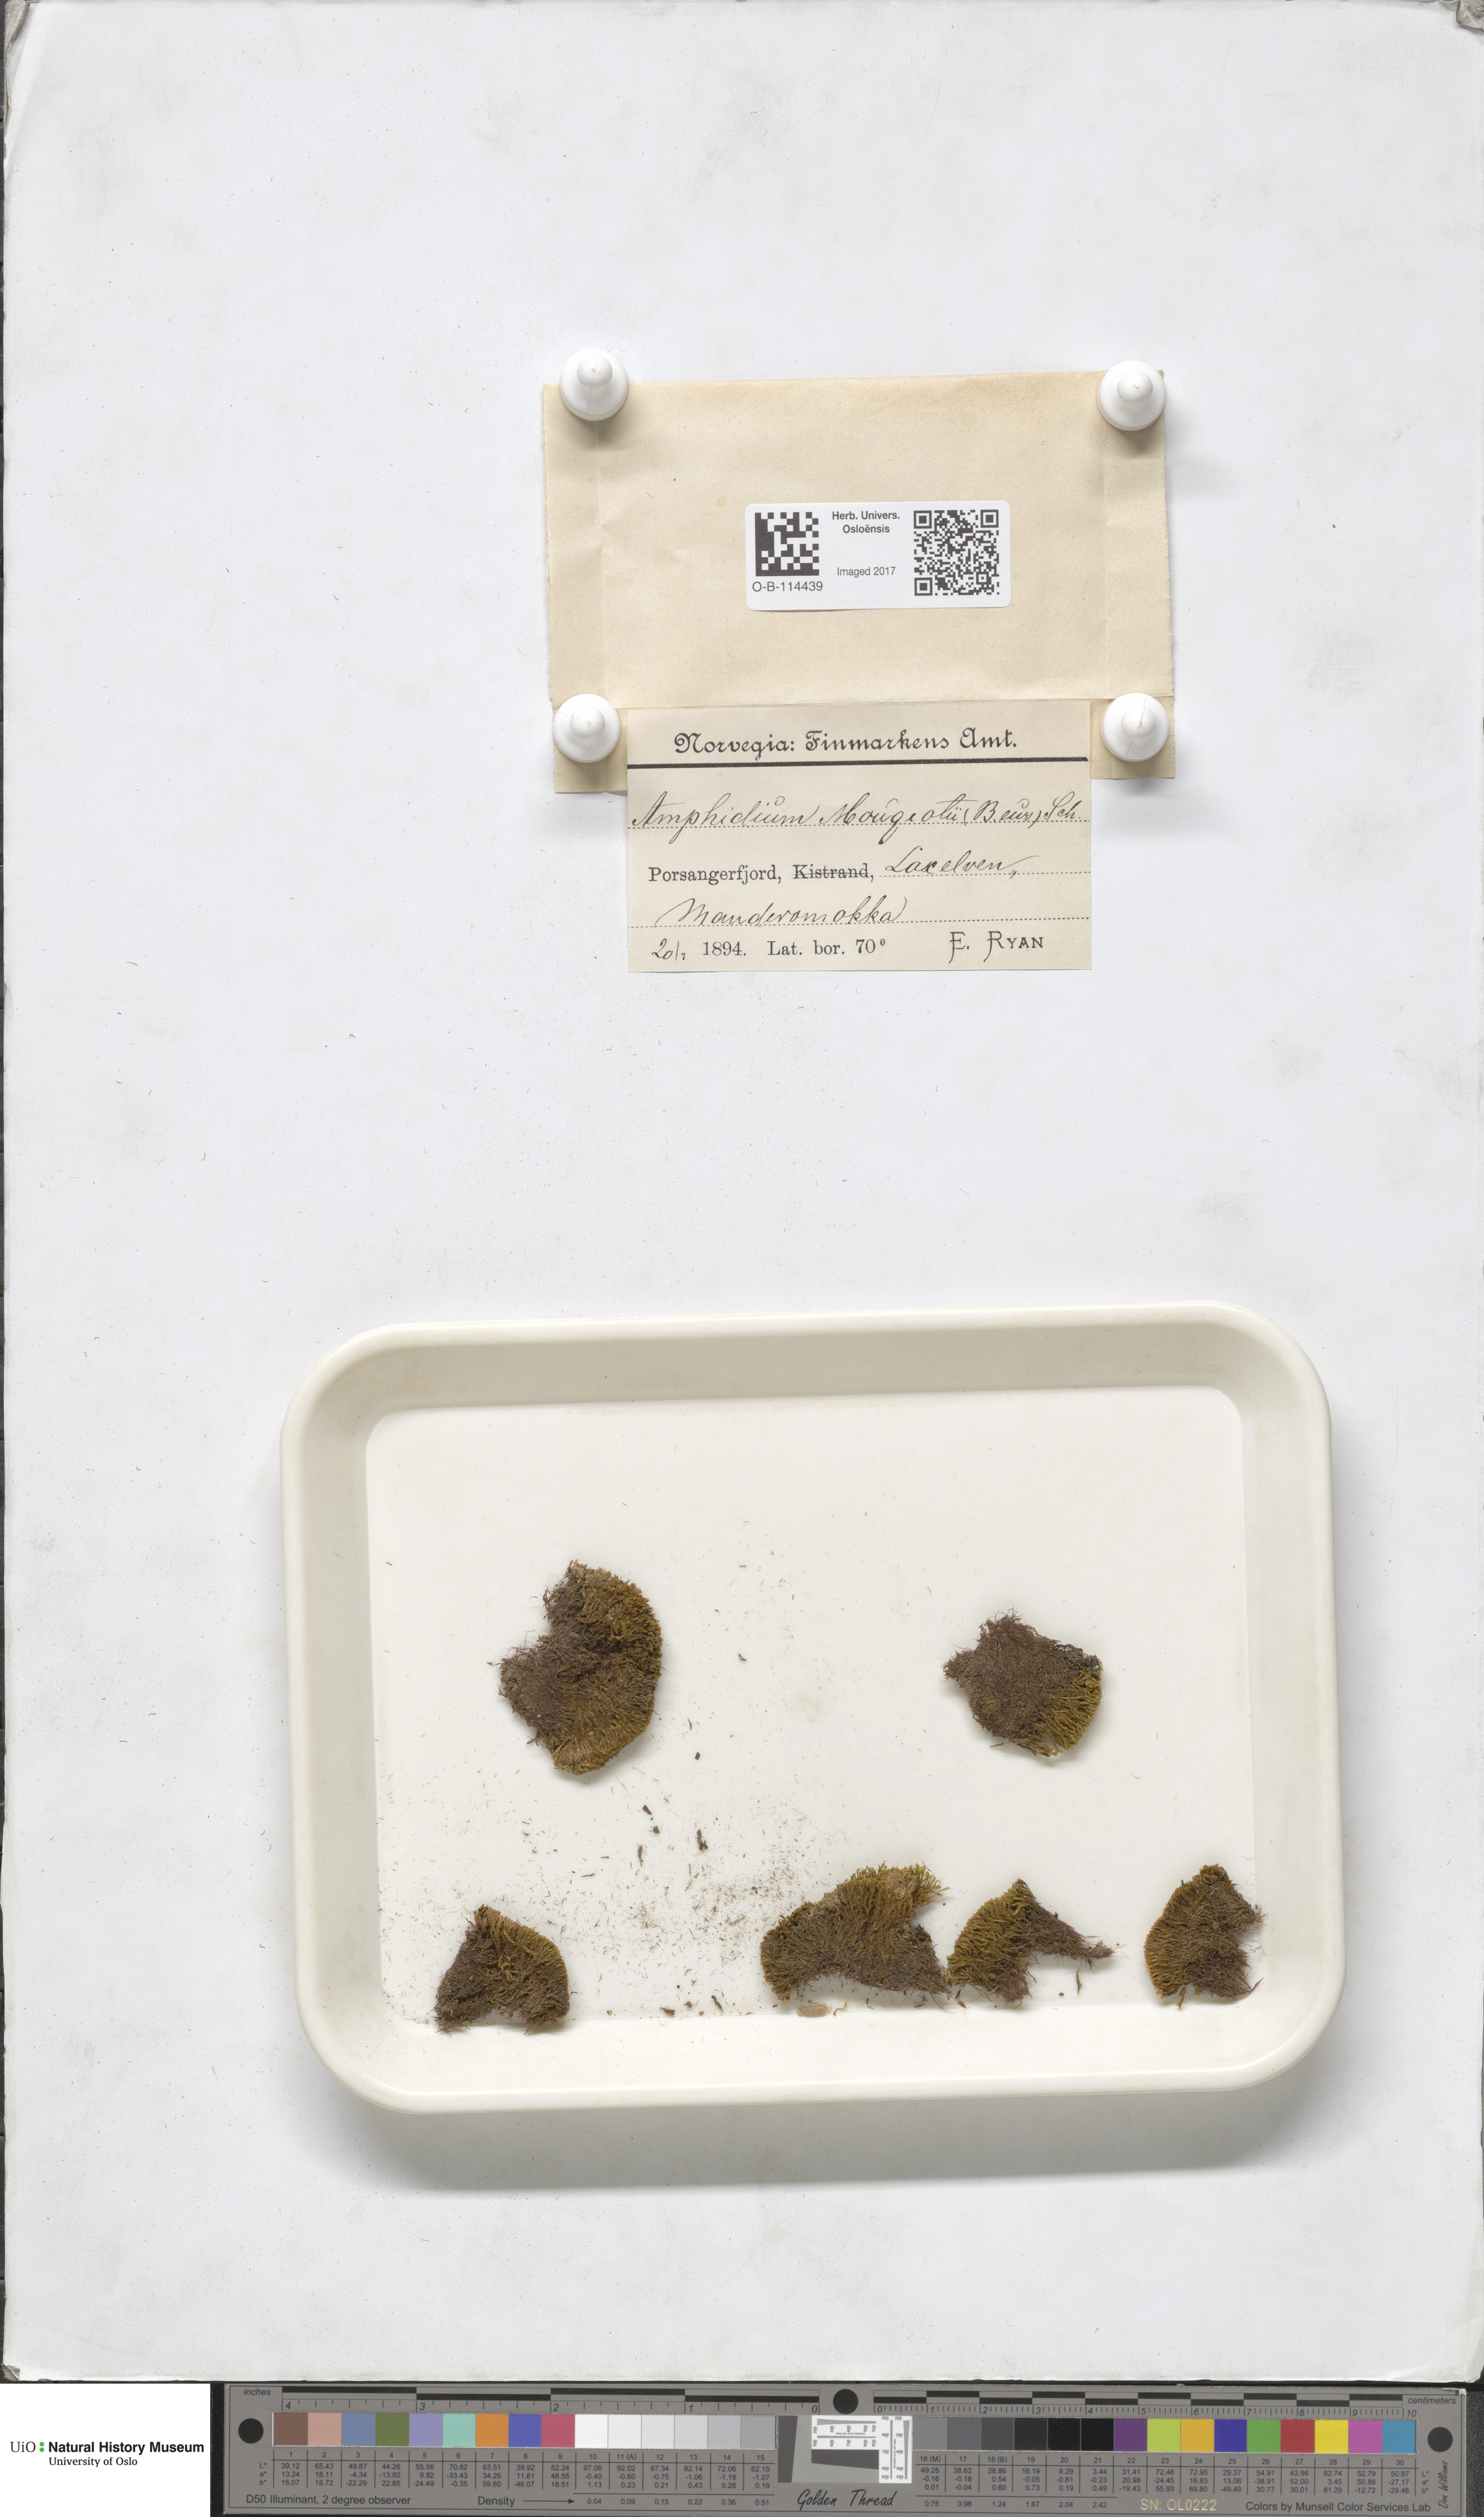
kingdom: Plantae
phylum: Bryophyta
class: Bryopsida
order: Dicranales
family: Amphidiaceae
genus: Amphidium
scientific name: Amphidium mougeotii
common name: Mougeot's yoke moss
